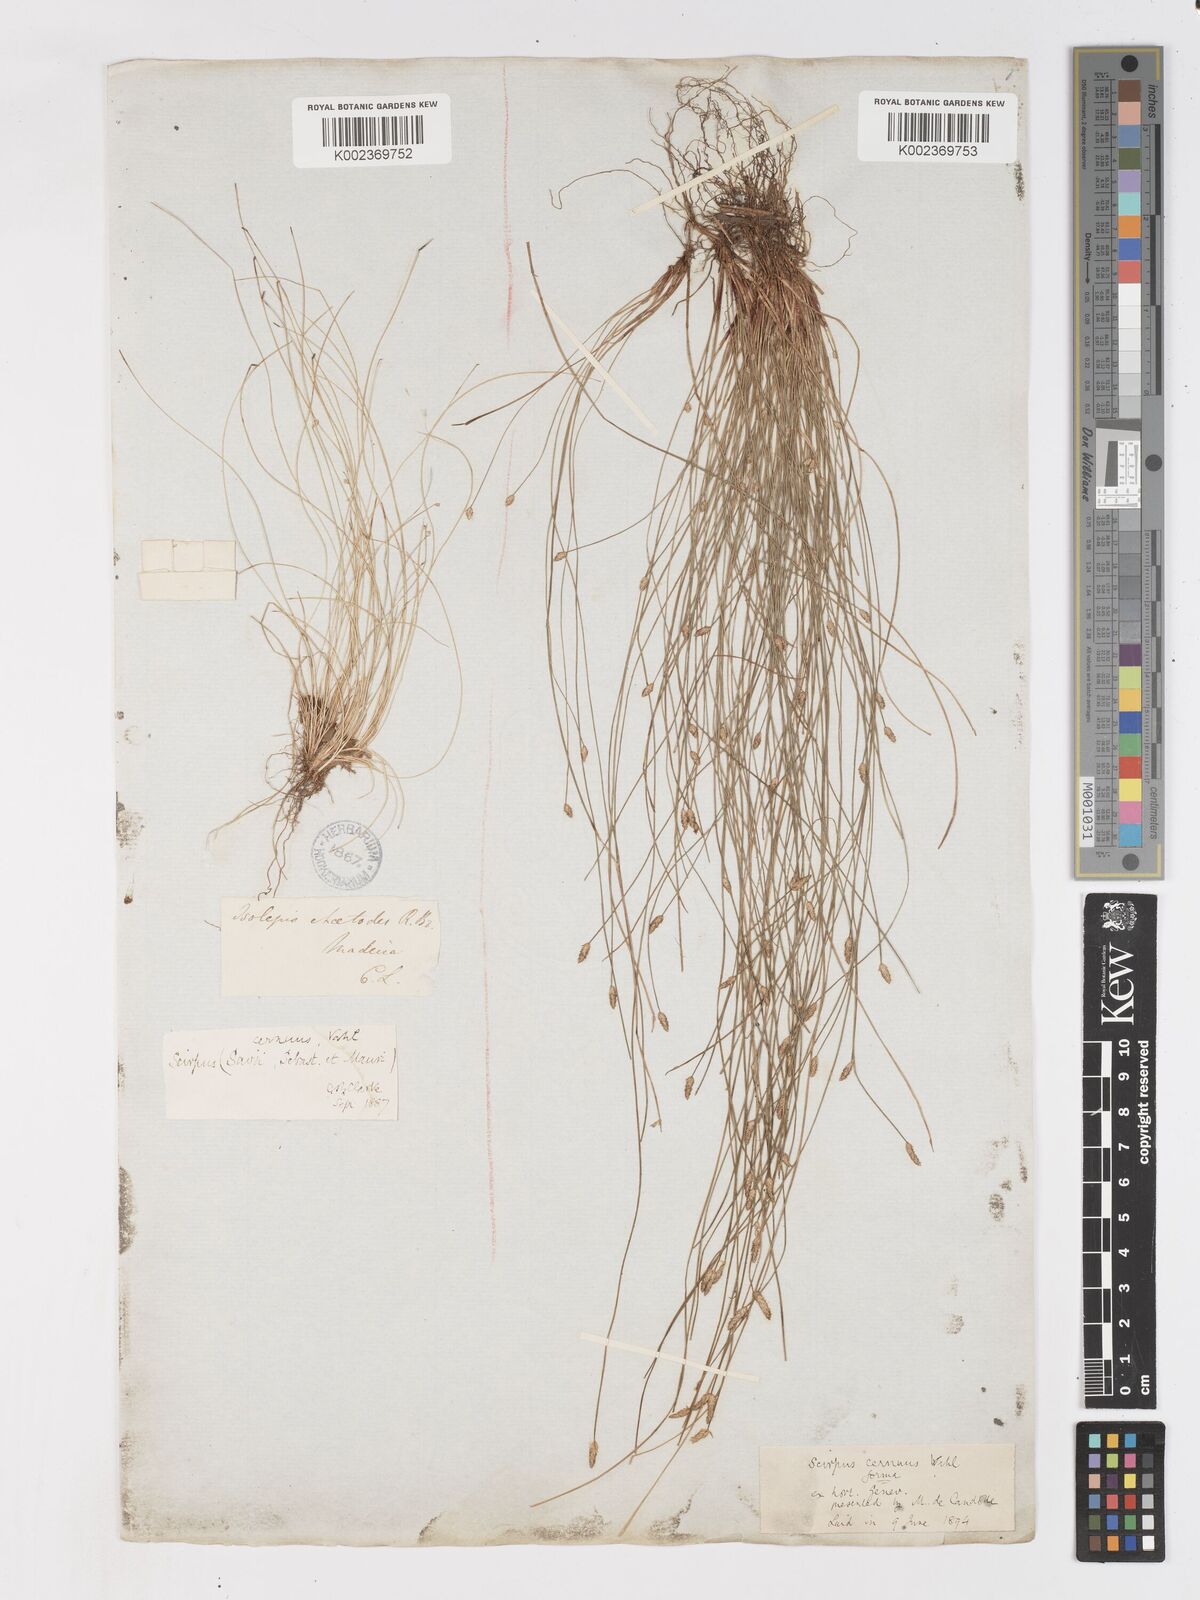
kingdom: Plantae
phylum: Tracheophyta
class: Liliopsida
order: Poales
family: Cyperaceae
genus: Isolepis
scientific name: Isolepis cernua
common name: Slender club-rush
